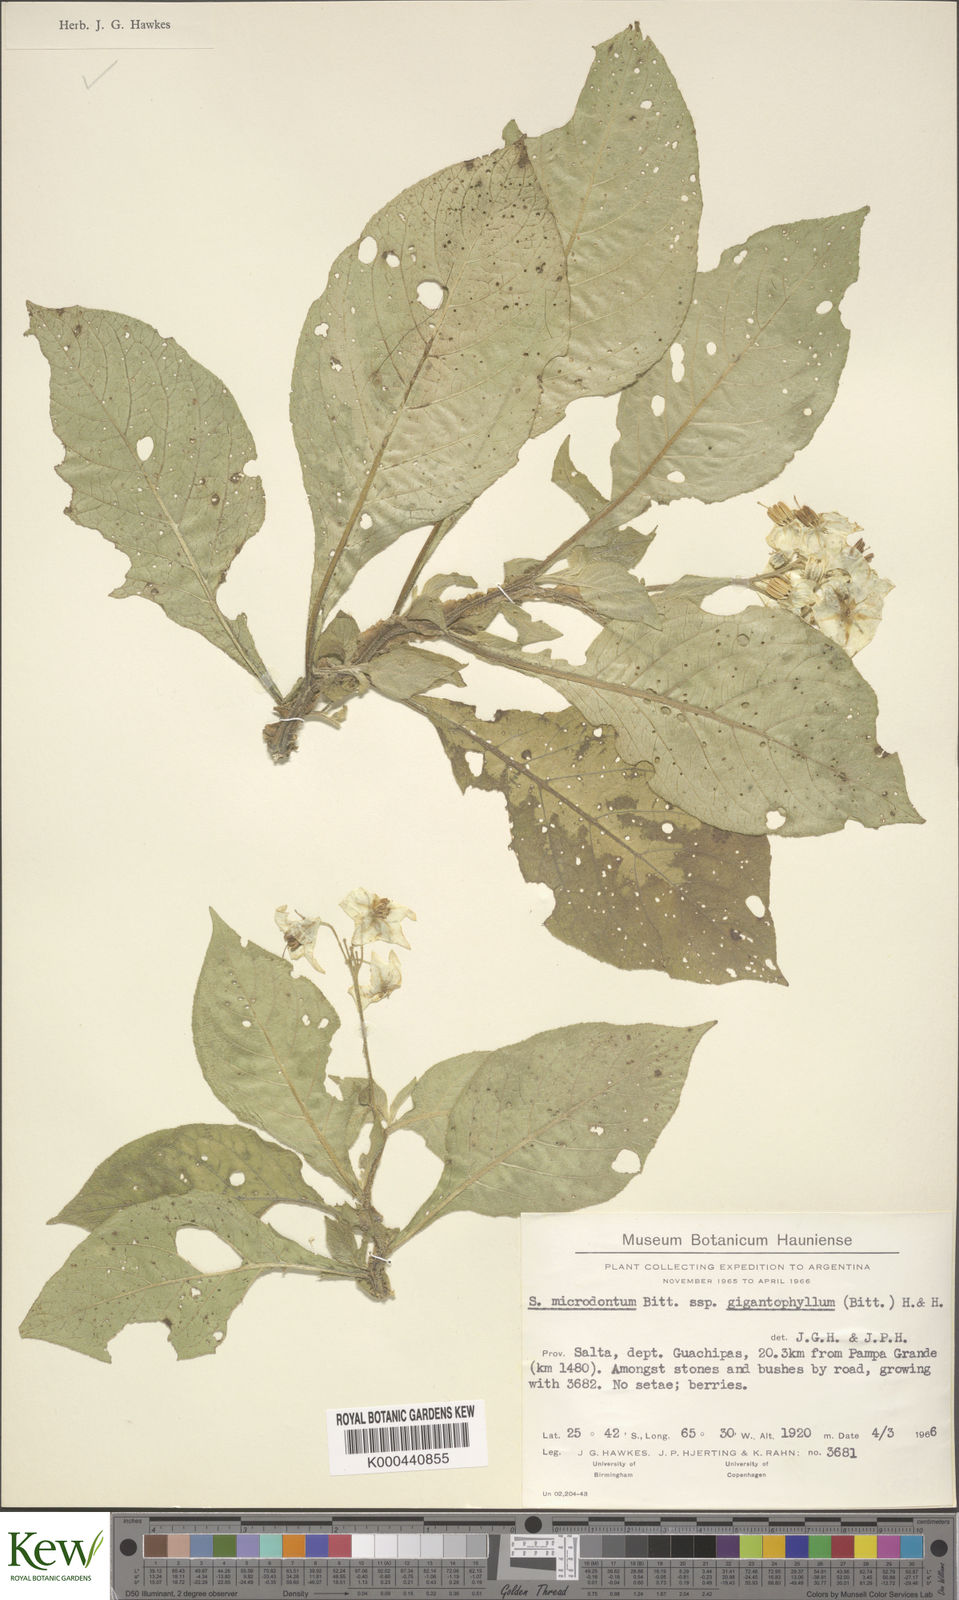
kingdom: Plantae
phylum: Tracheophyta
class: Magnoliopsida
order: Solanales
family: Solanaceae
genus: Solanum
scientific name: Solanum microdontum
